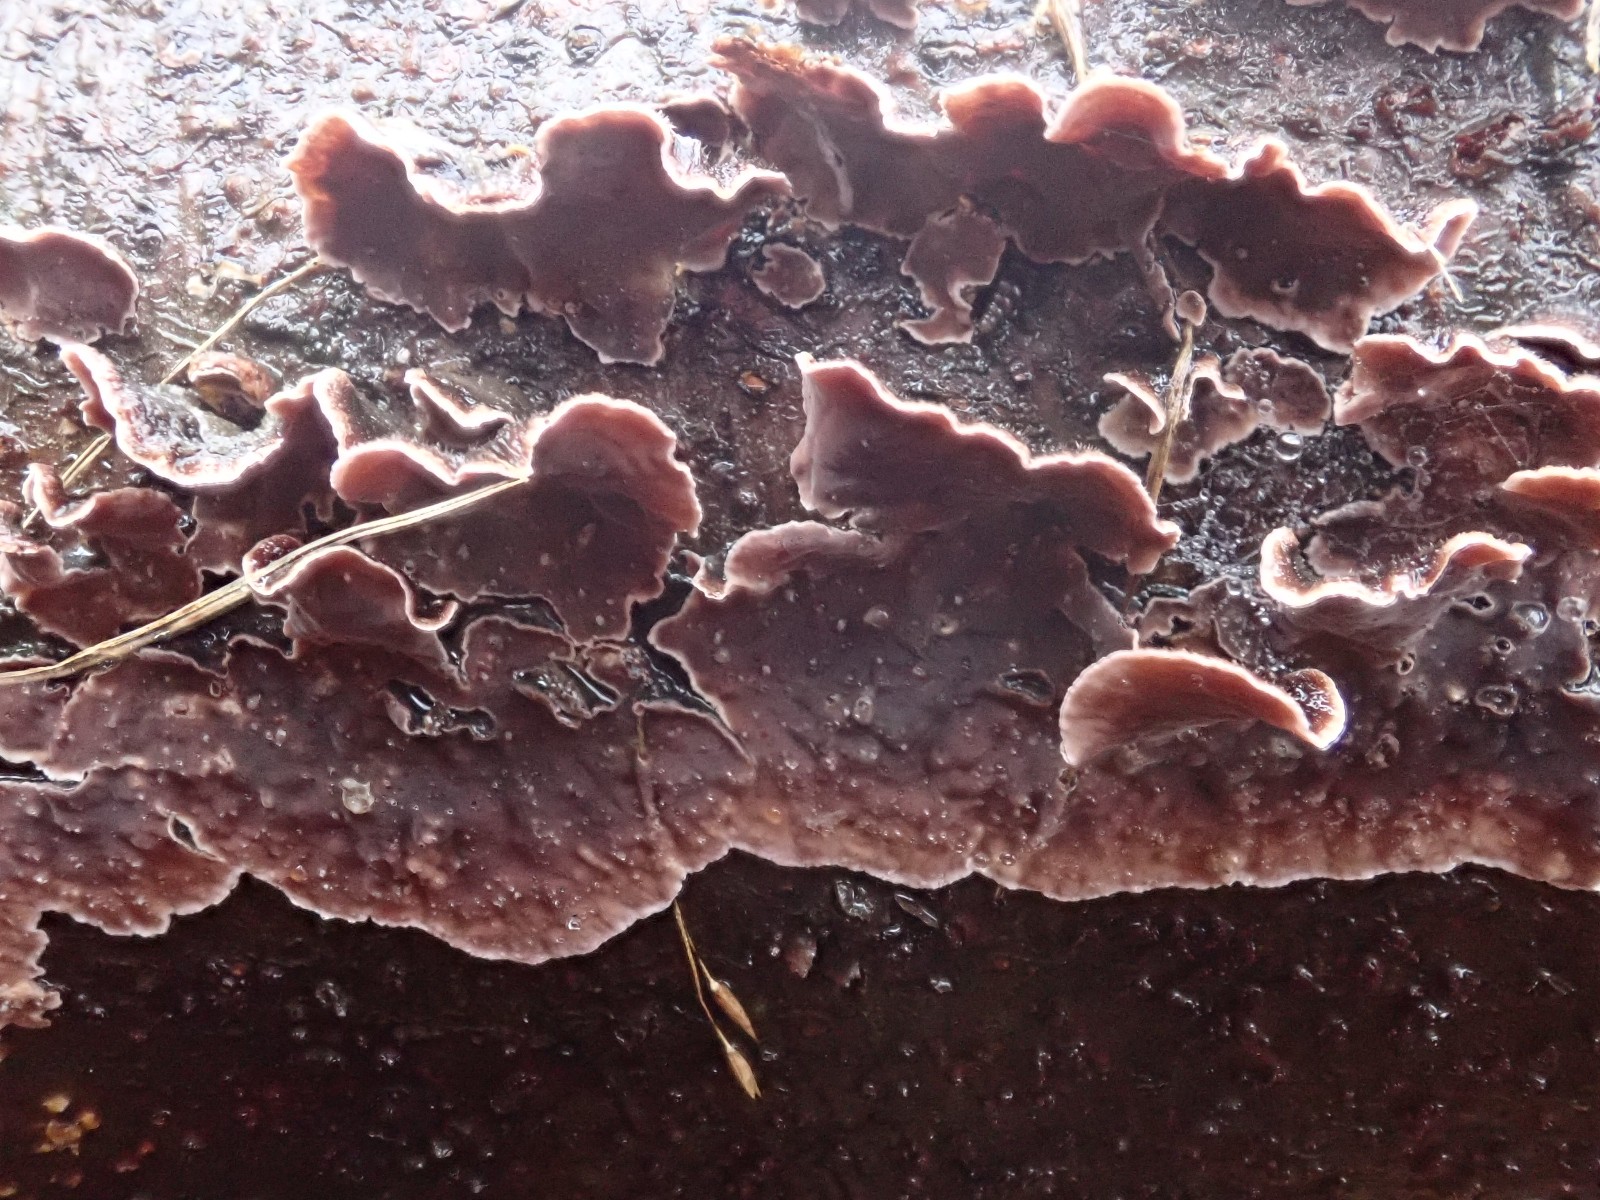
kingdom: Fungi
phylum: Basidiomycota
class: Agaricomycetes
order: Agaricales
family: Cyphellaceae
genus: Chondrostereum
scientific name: Chondrostereum purpureum
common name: purpurlædersvamp
